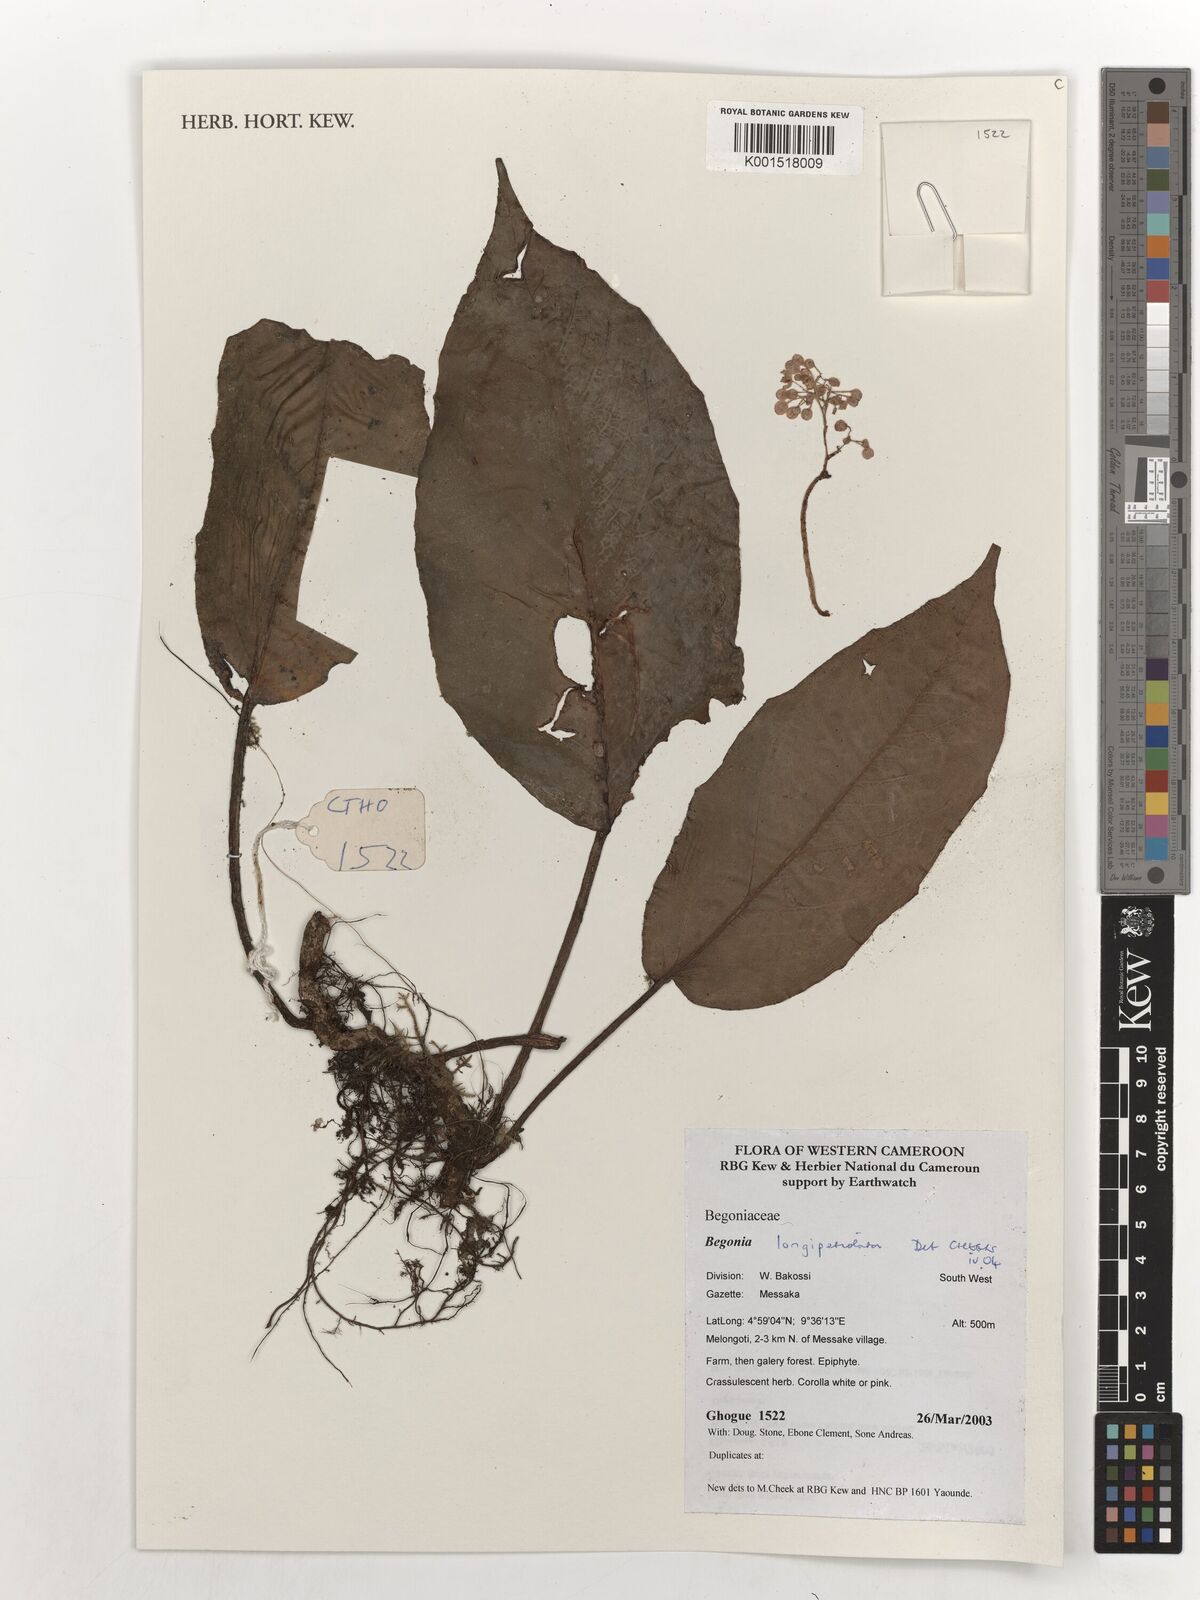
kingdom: Plantae
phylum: Tracheophyta
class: Magnoliopsida
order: Cucurbitales
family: Begoniaceae
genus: Begonia
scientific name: Begonia longipetiolata
